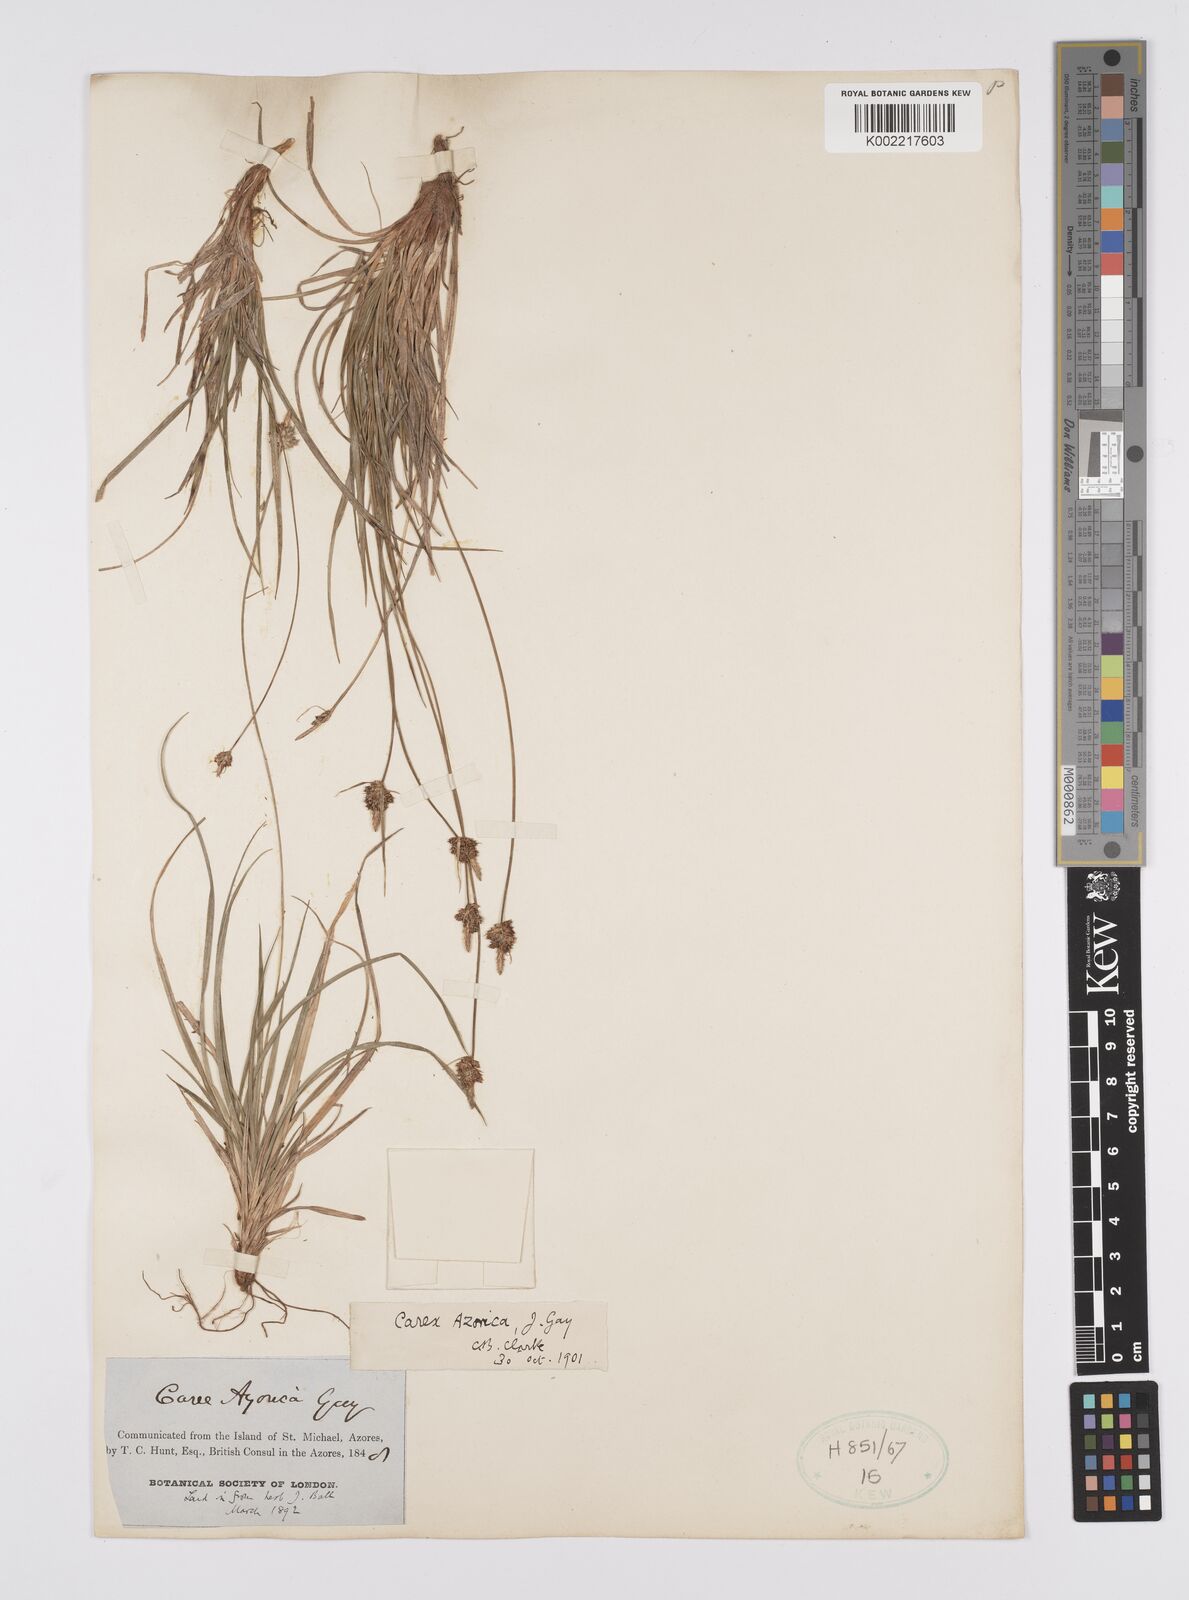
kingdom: Plantae
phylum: Tracheophyta
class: Liliopsida
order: Poales
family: Cyperaceae
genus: Carex
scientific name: Carex pilulifera
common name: Pill sedge
